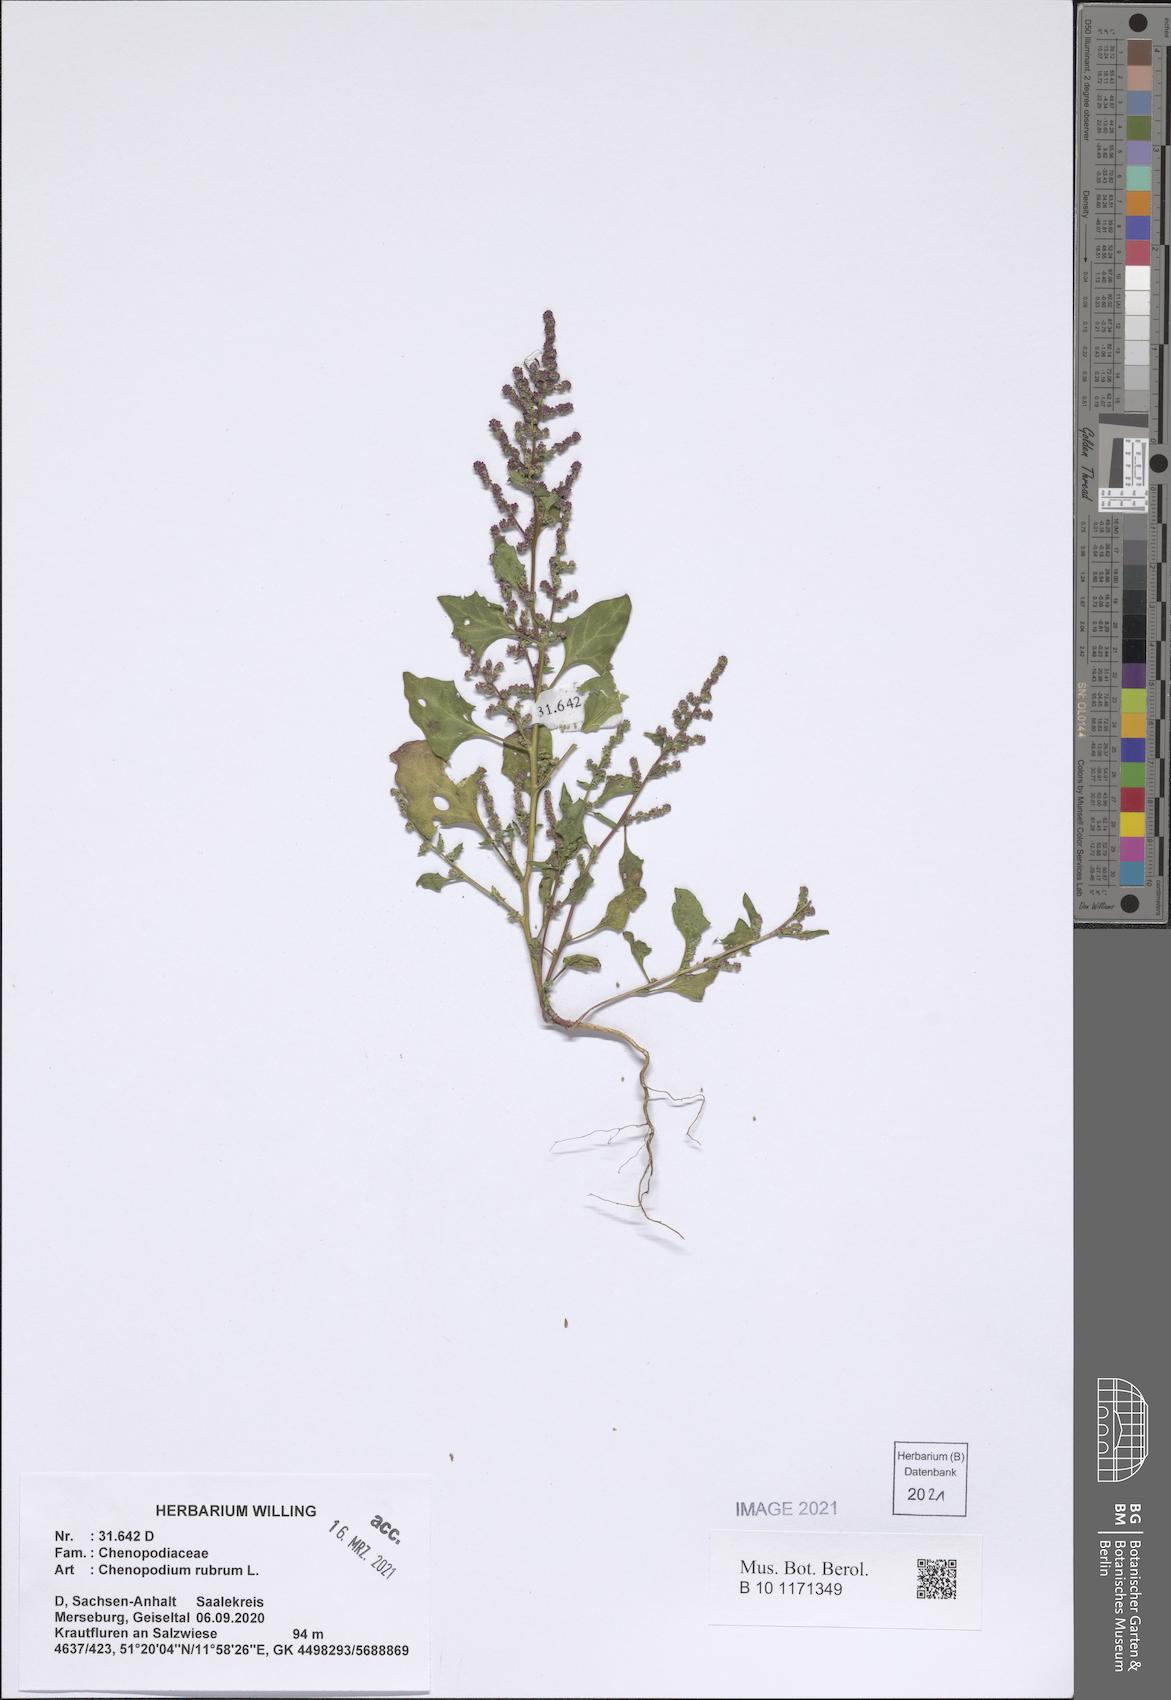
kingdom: Plantae
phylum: Tracheophyta
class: Magnoliopsida
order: Caryophyllales
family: Amaranthaceae
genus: Oxybasis
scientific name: Oxybasis rubra
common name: Red goosefoot
